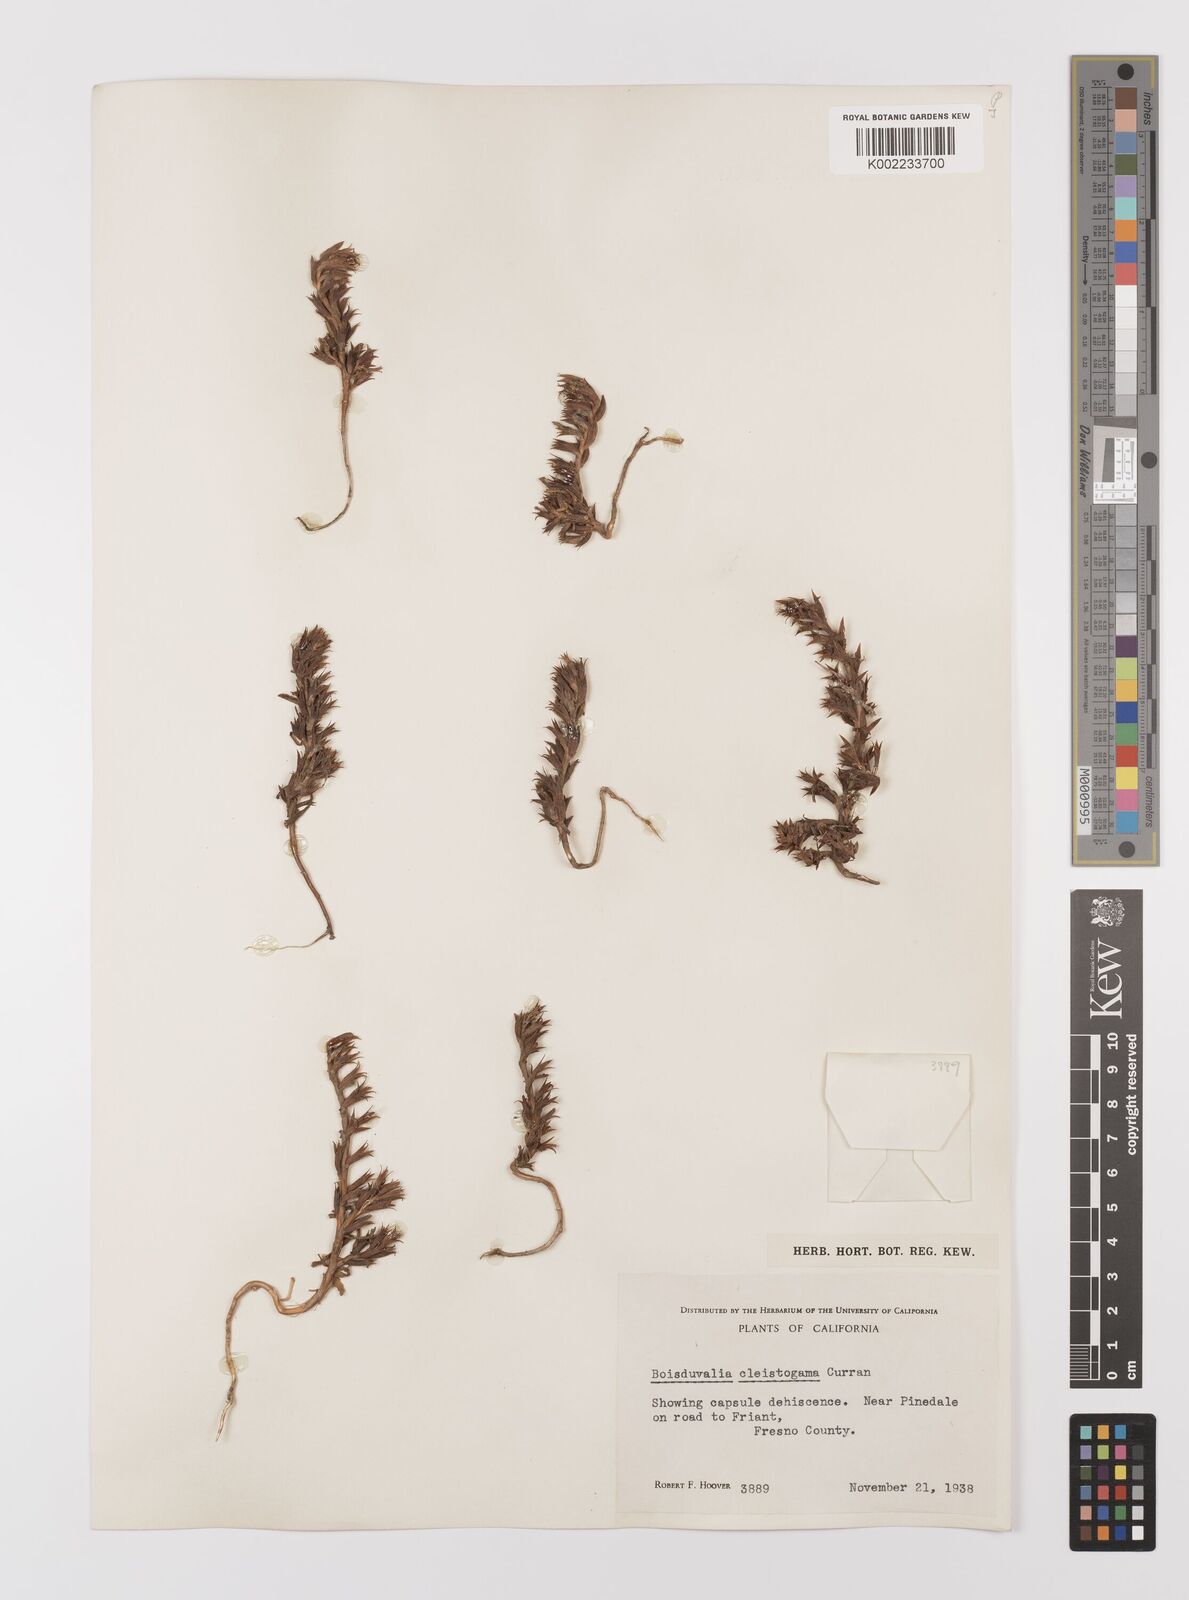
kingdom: Plantae
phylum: Tracheophyta
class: Magnoliopsida
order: Myrtales
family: Onagraceae
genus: Epilobium
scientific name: Epilobium cleistogamum
